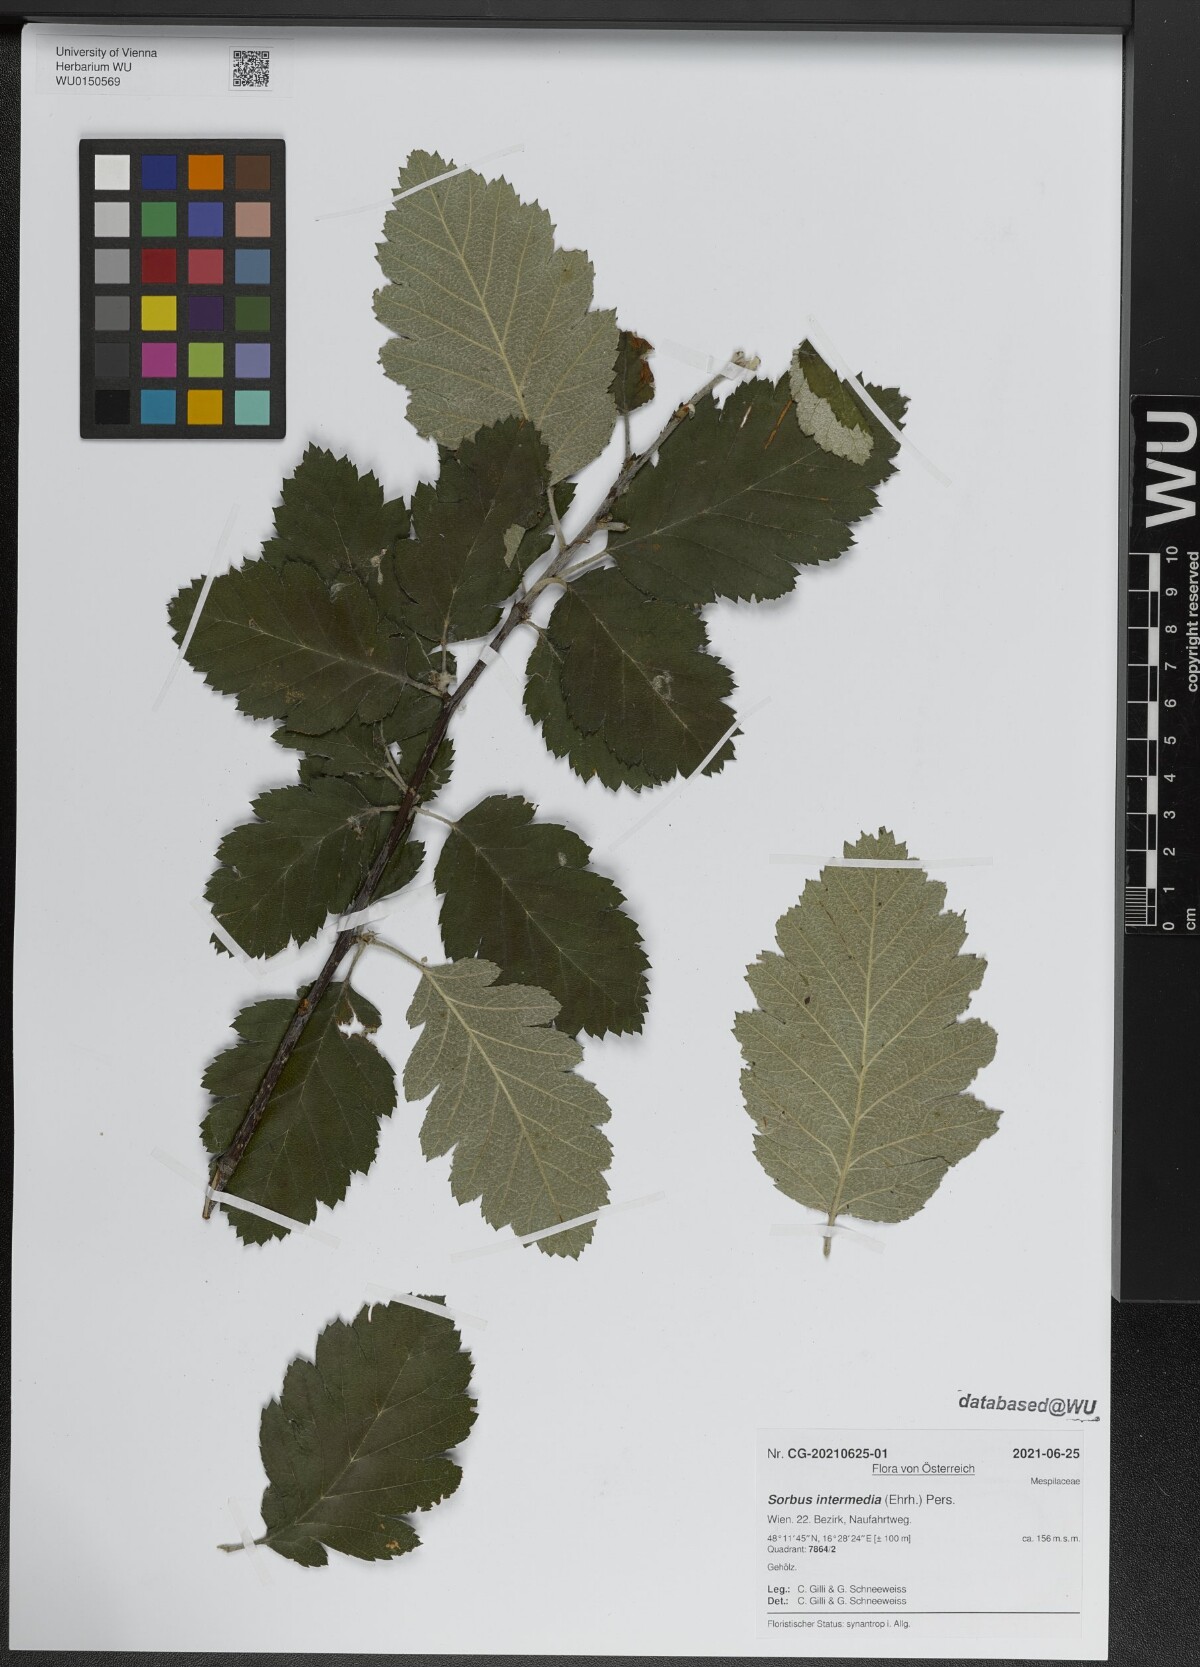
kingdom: Plantae
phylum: Tracheophyta
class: Magnoliopsida
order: Rosales
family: Rosaceae
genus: Scandosorbus
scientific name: Scandosorbus intermedia
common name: Swedish whitebeam
